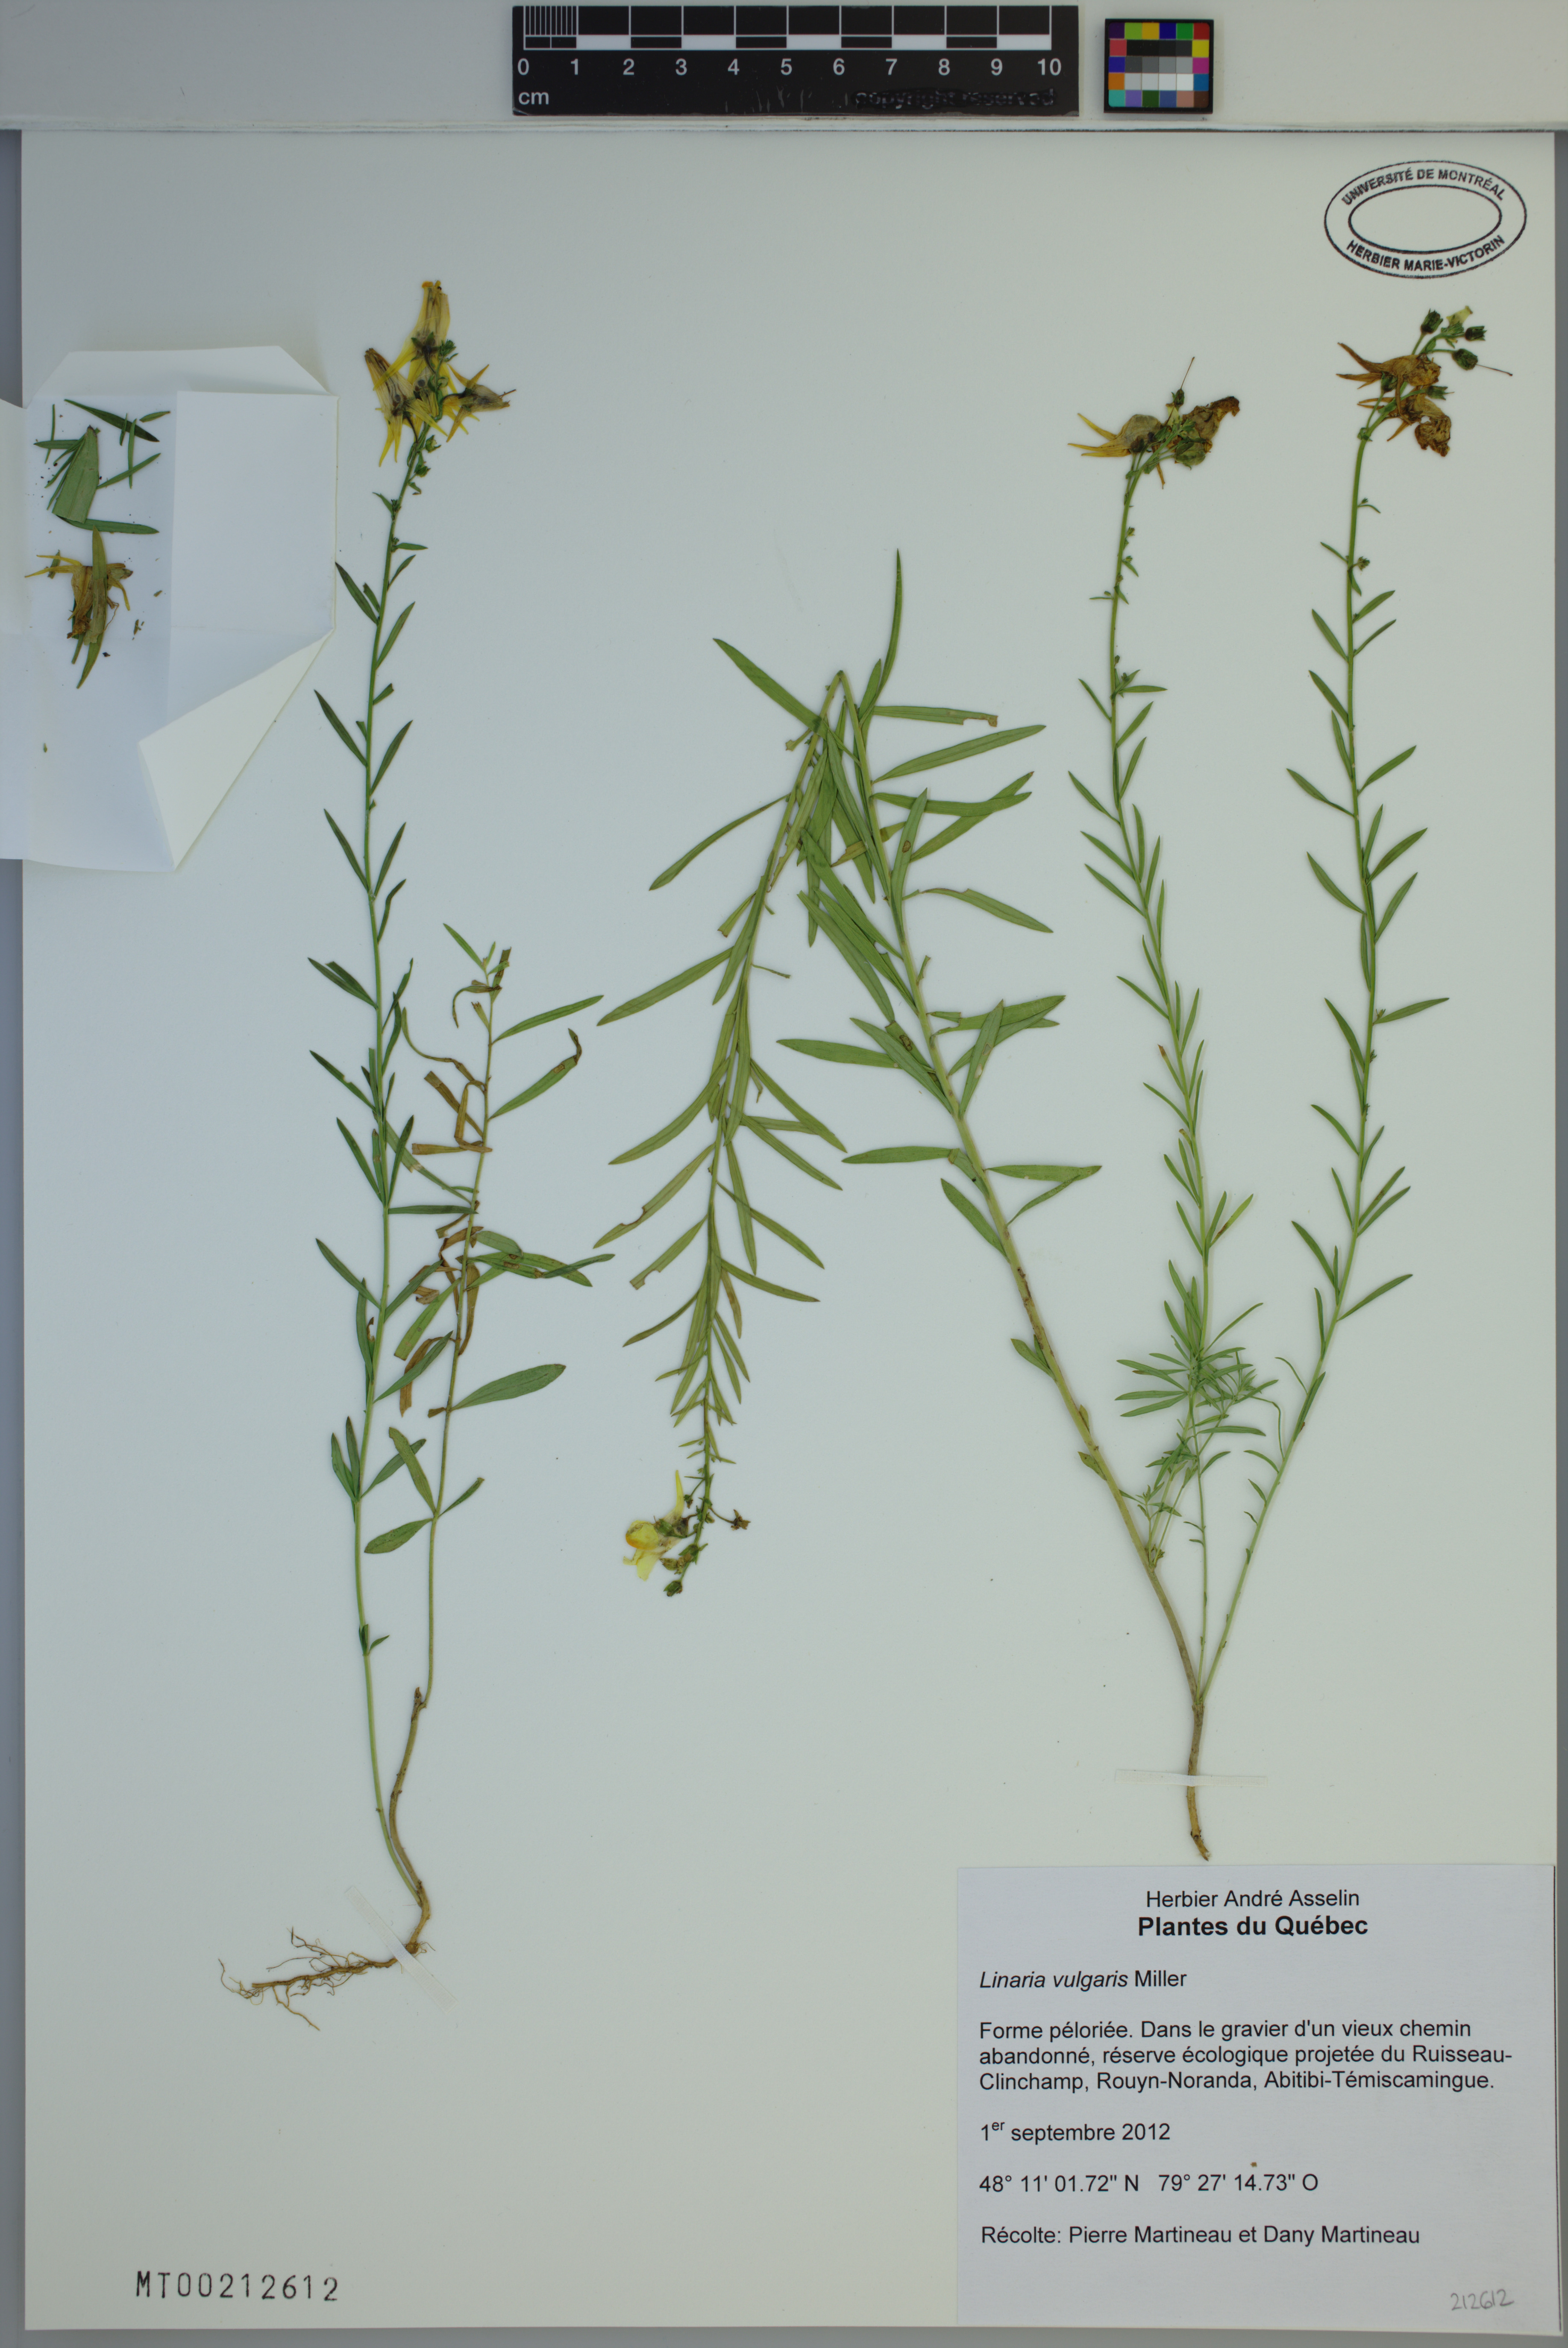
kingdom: Plantae
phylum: Tracheophyta
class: Magnoliopsida
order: Lamiales
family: Plantaginaceae
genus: Linaria
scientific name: Linaria vulgaris
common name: Butter and eggs
